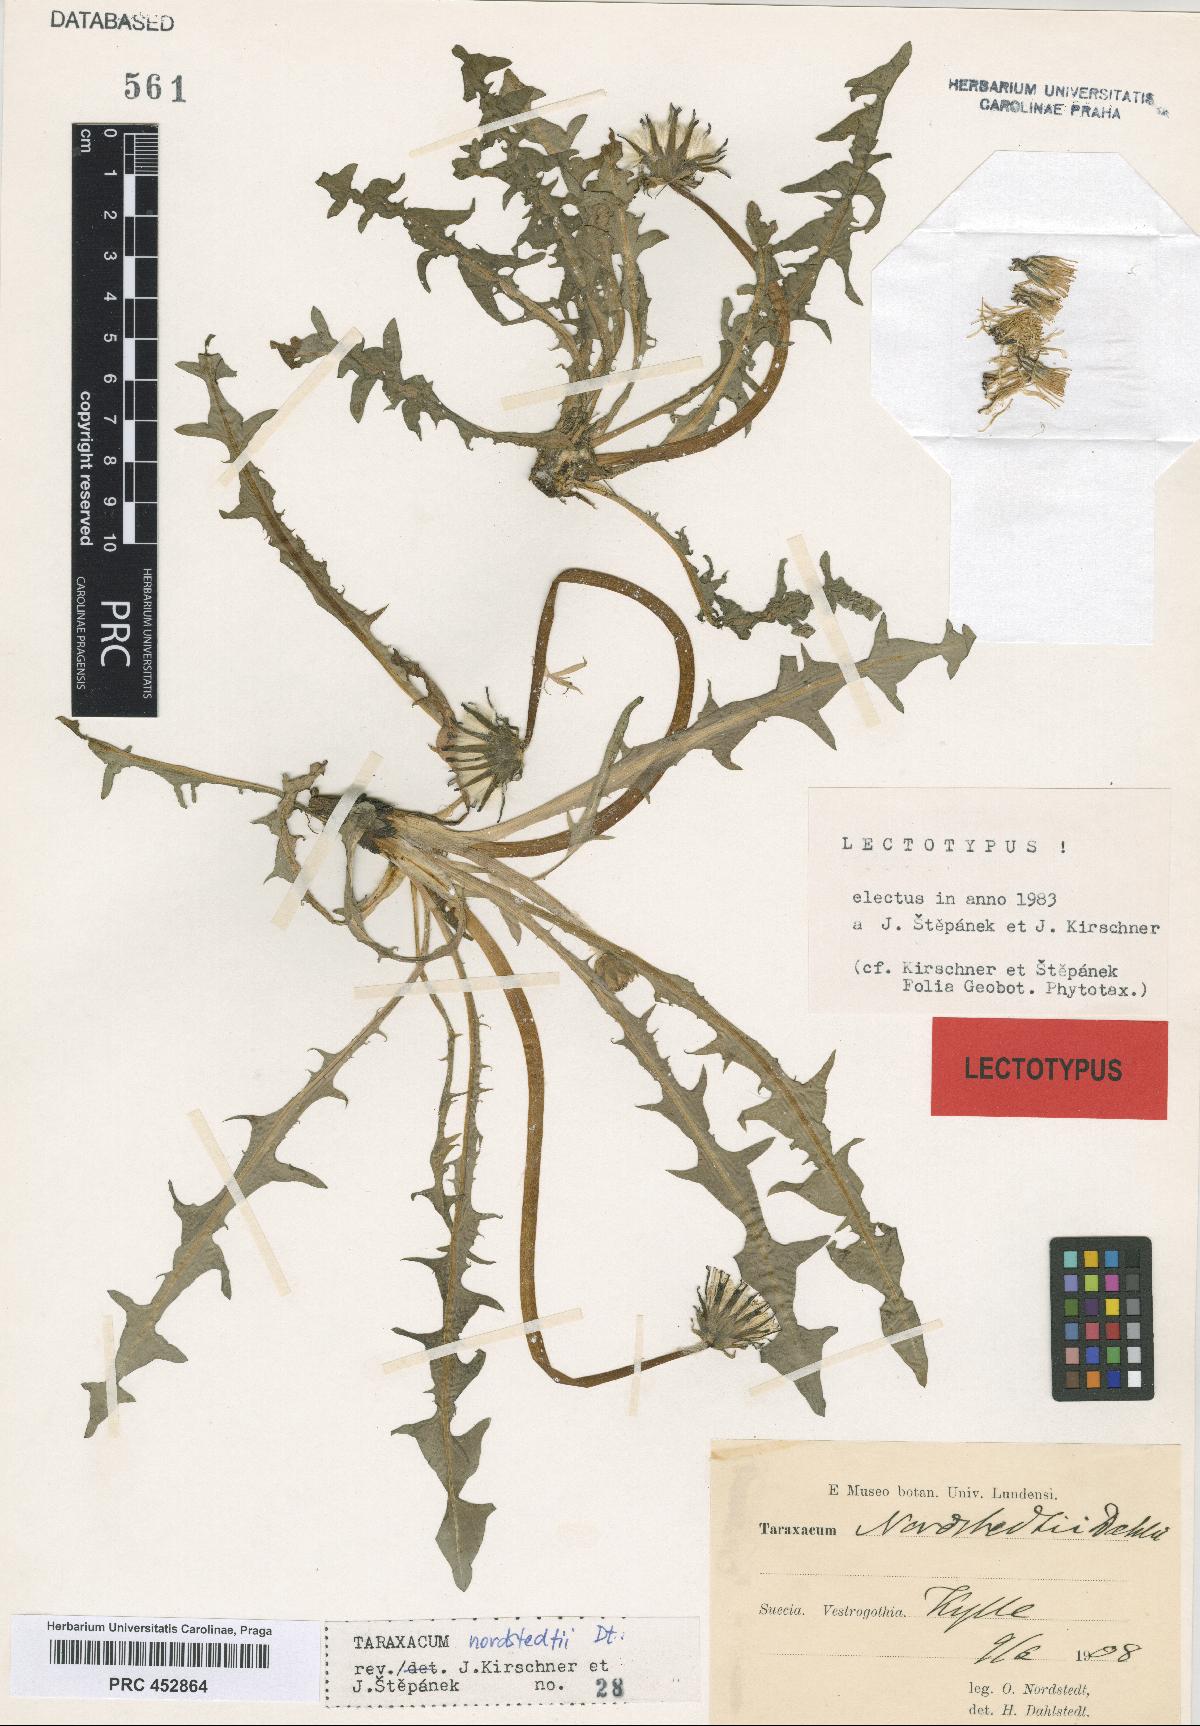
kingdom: Plantae
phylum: Tracheophyta
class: Magnoliopsida
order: Asterales
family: Asteraceae
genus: Taraxacum
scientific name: Taraxacum nordstedtii
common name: Nordstedt's dandelion
